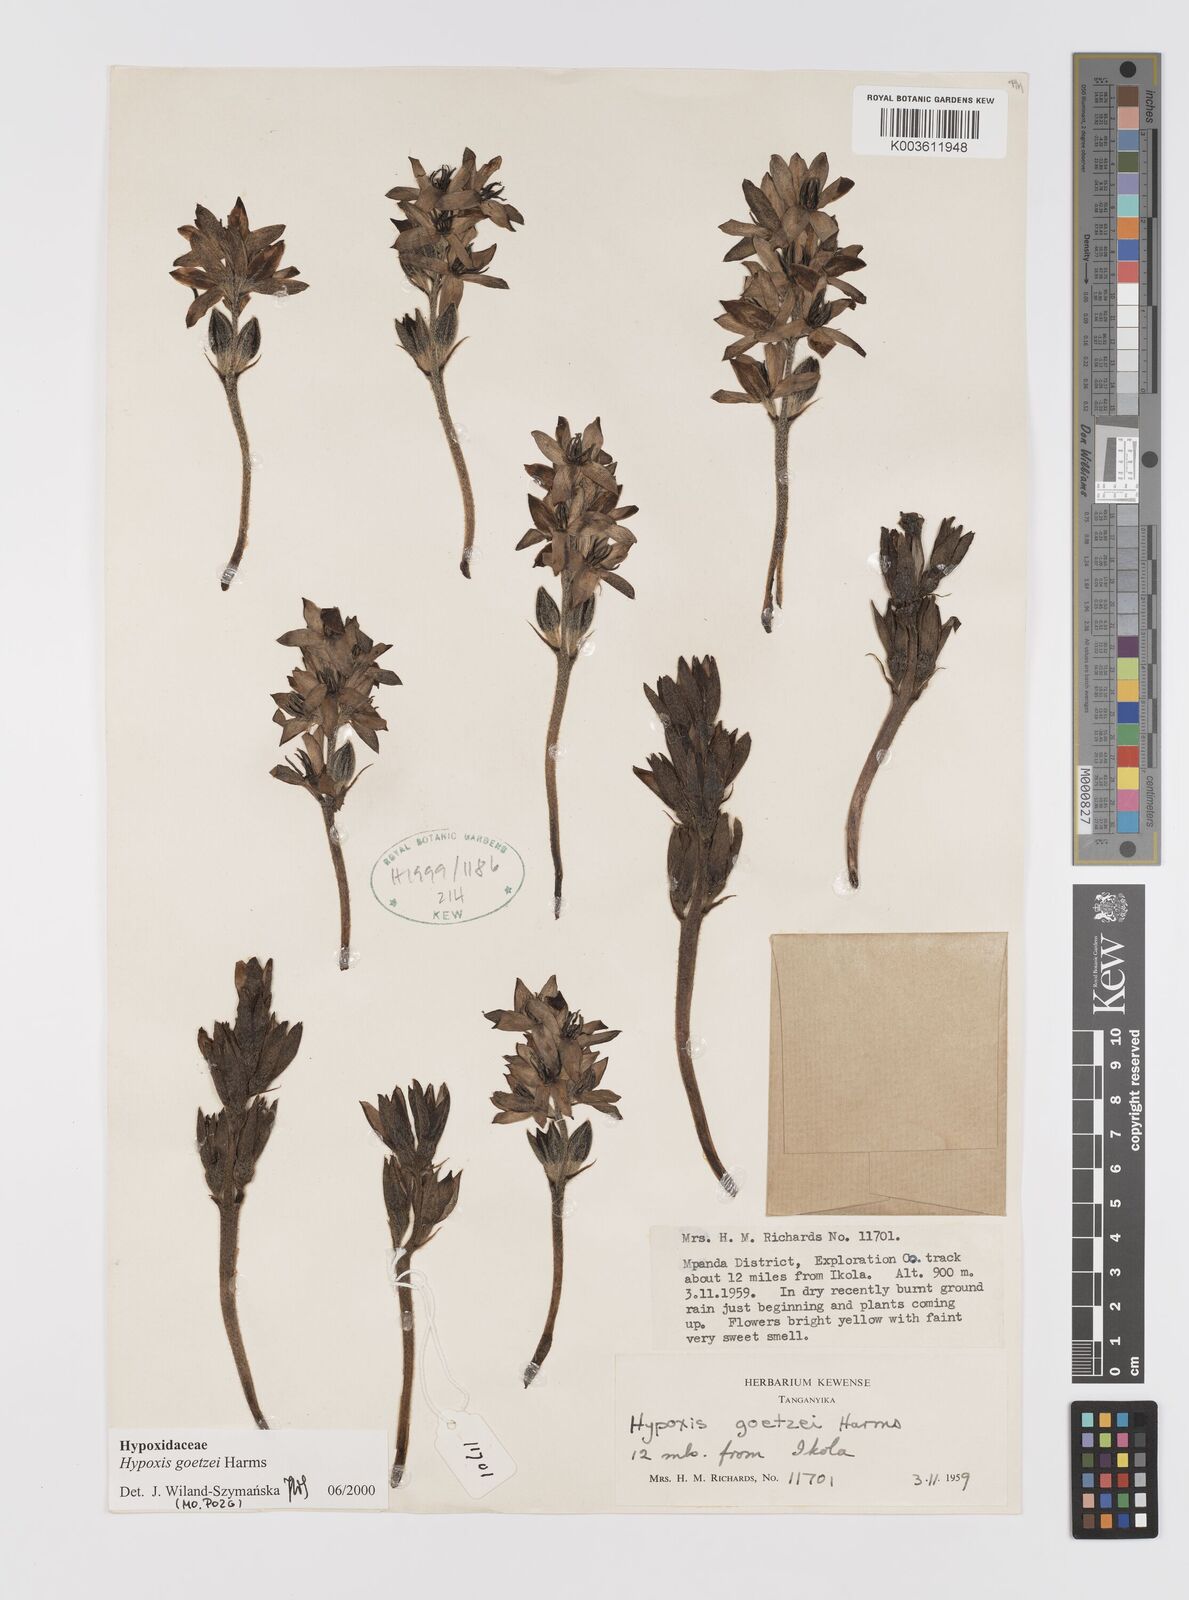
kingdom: Plantae
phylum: Tracheophyta
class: Liliopsida
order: Asparagales
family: Hypoxidaceae
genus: Hypoxis
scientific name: Hypoxis goetzei
